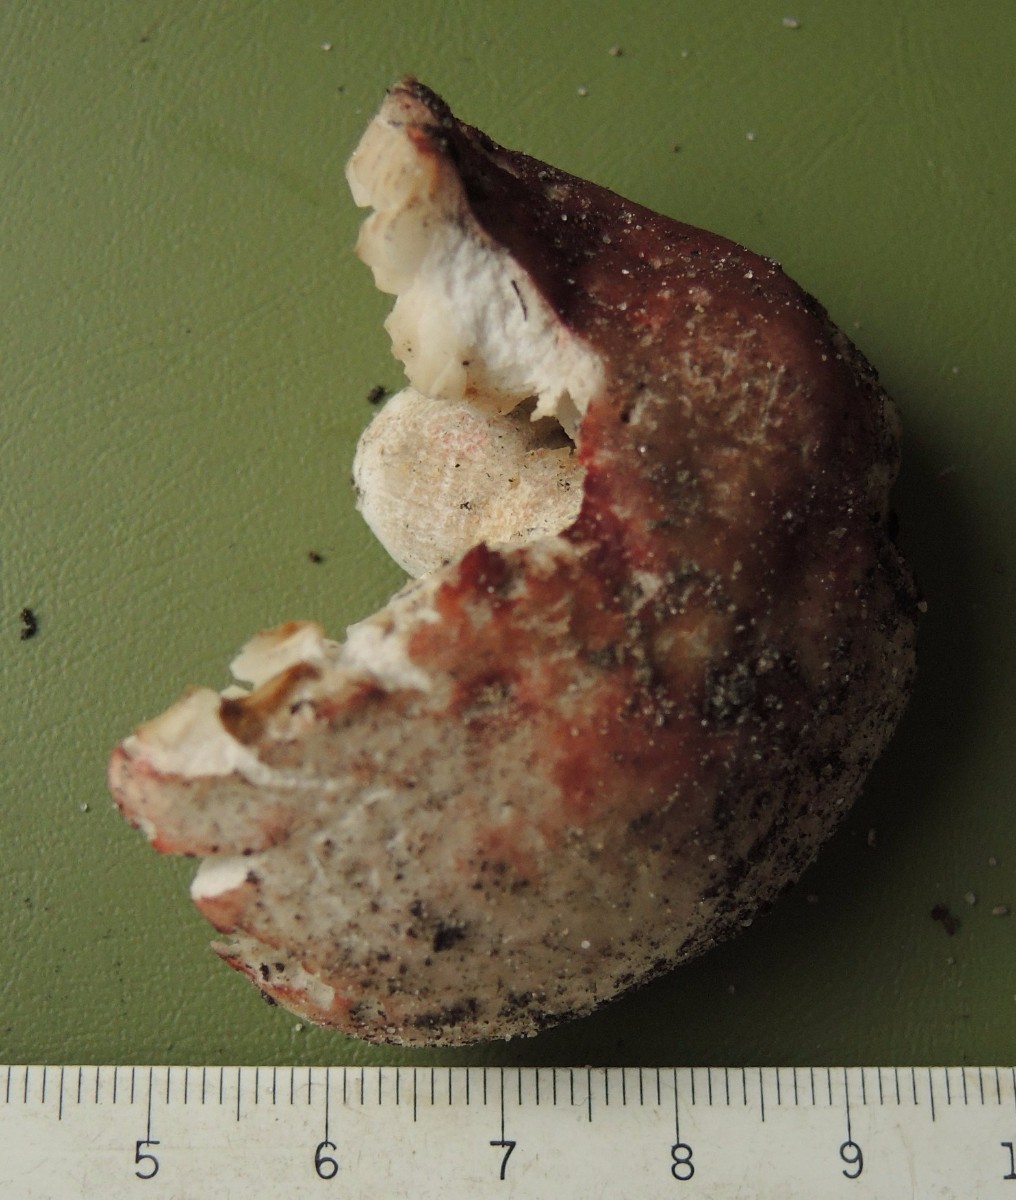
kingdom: Fungi
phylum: Basidiomycota
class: Agaricomycetes
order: Russulales
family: Russulaceae
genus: Russula
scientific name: Russula depallens
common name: falmende skørhat
